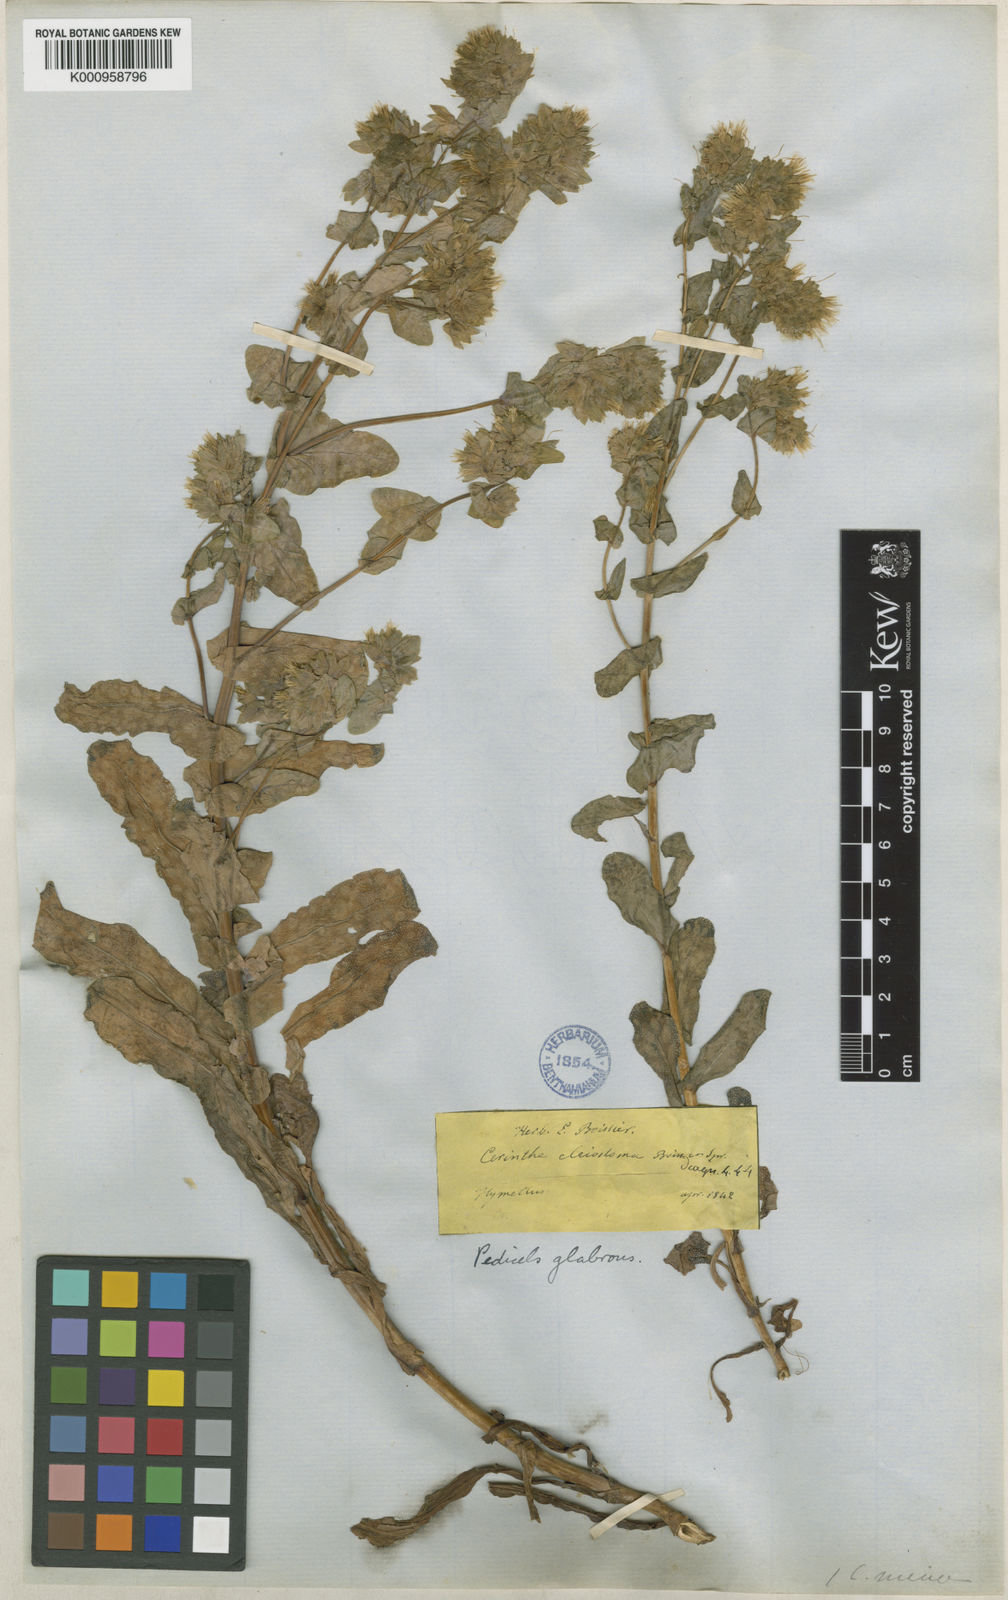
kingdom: Plantae
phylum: Tracheophyta
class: Magnoliopsida
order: Boraginales
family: Boraginaceae
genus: Cerinthe
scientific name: Cerinthe minor
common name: Lesser honeywort
